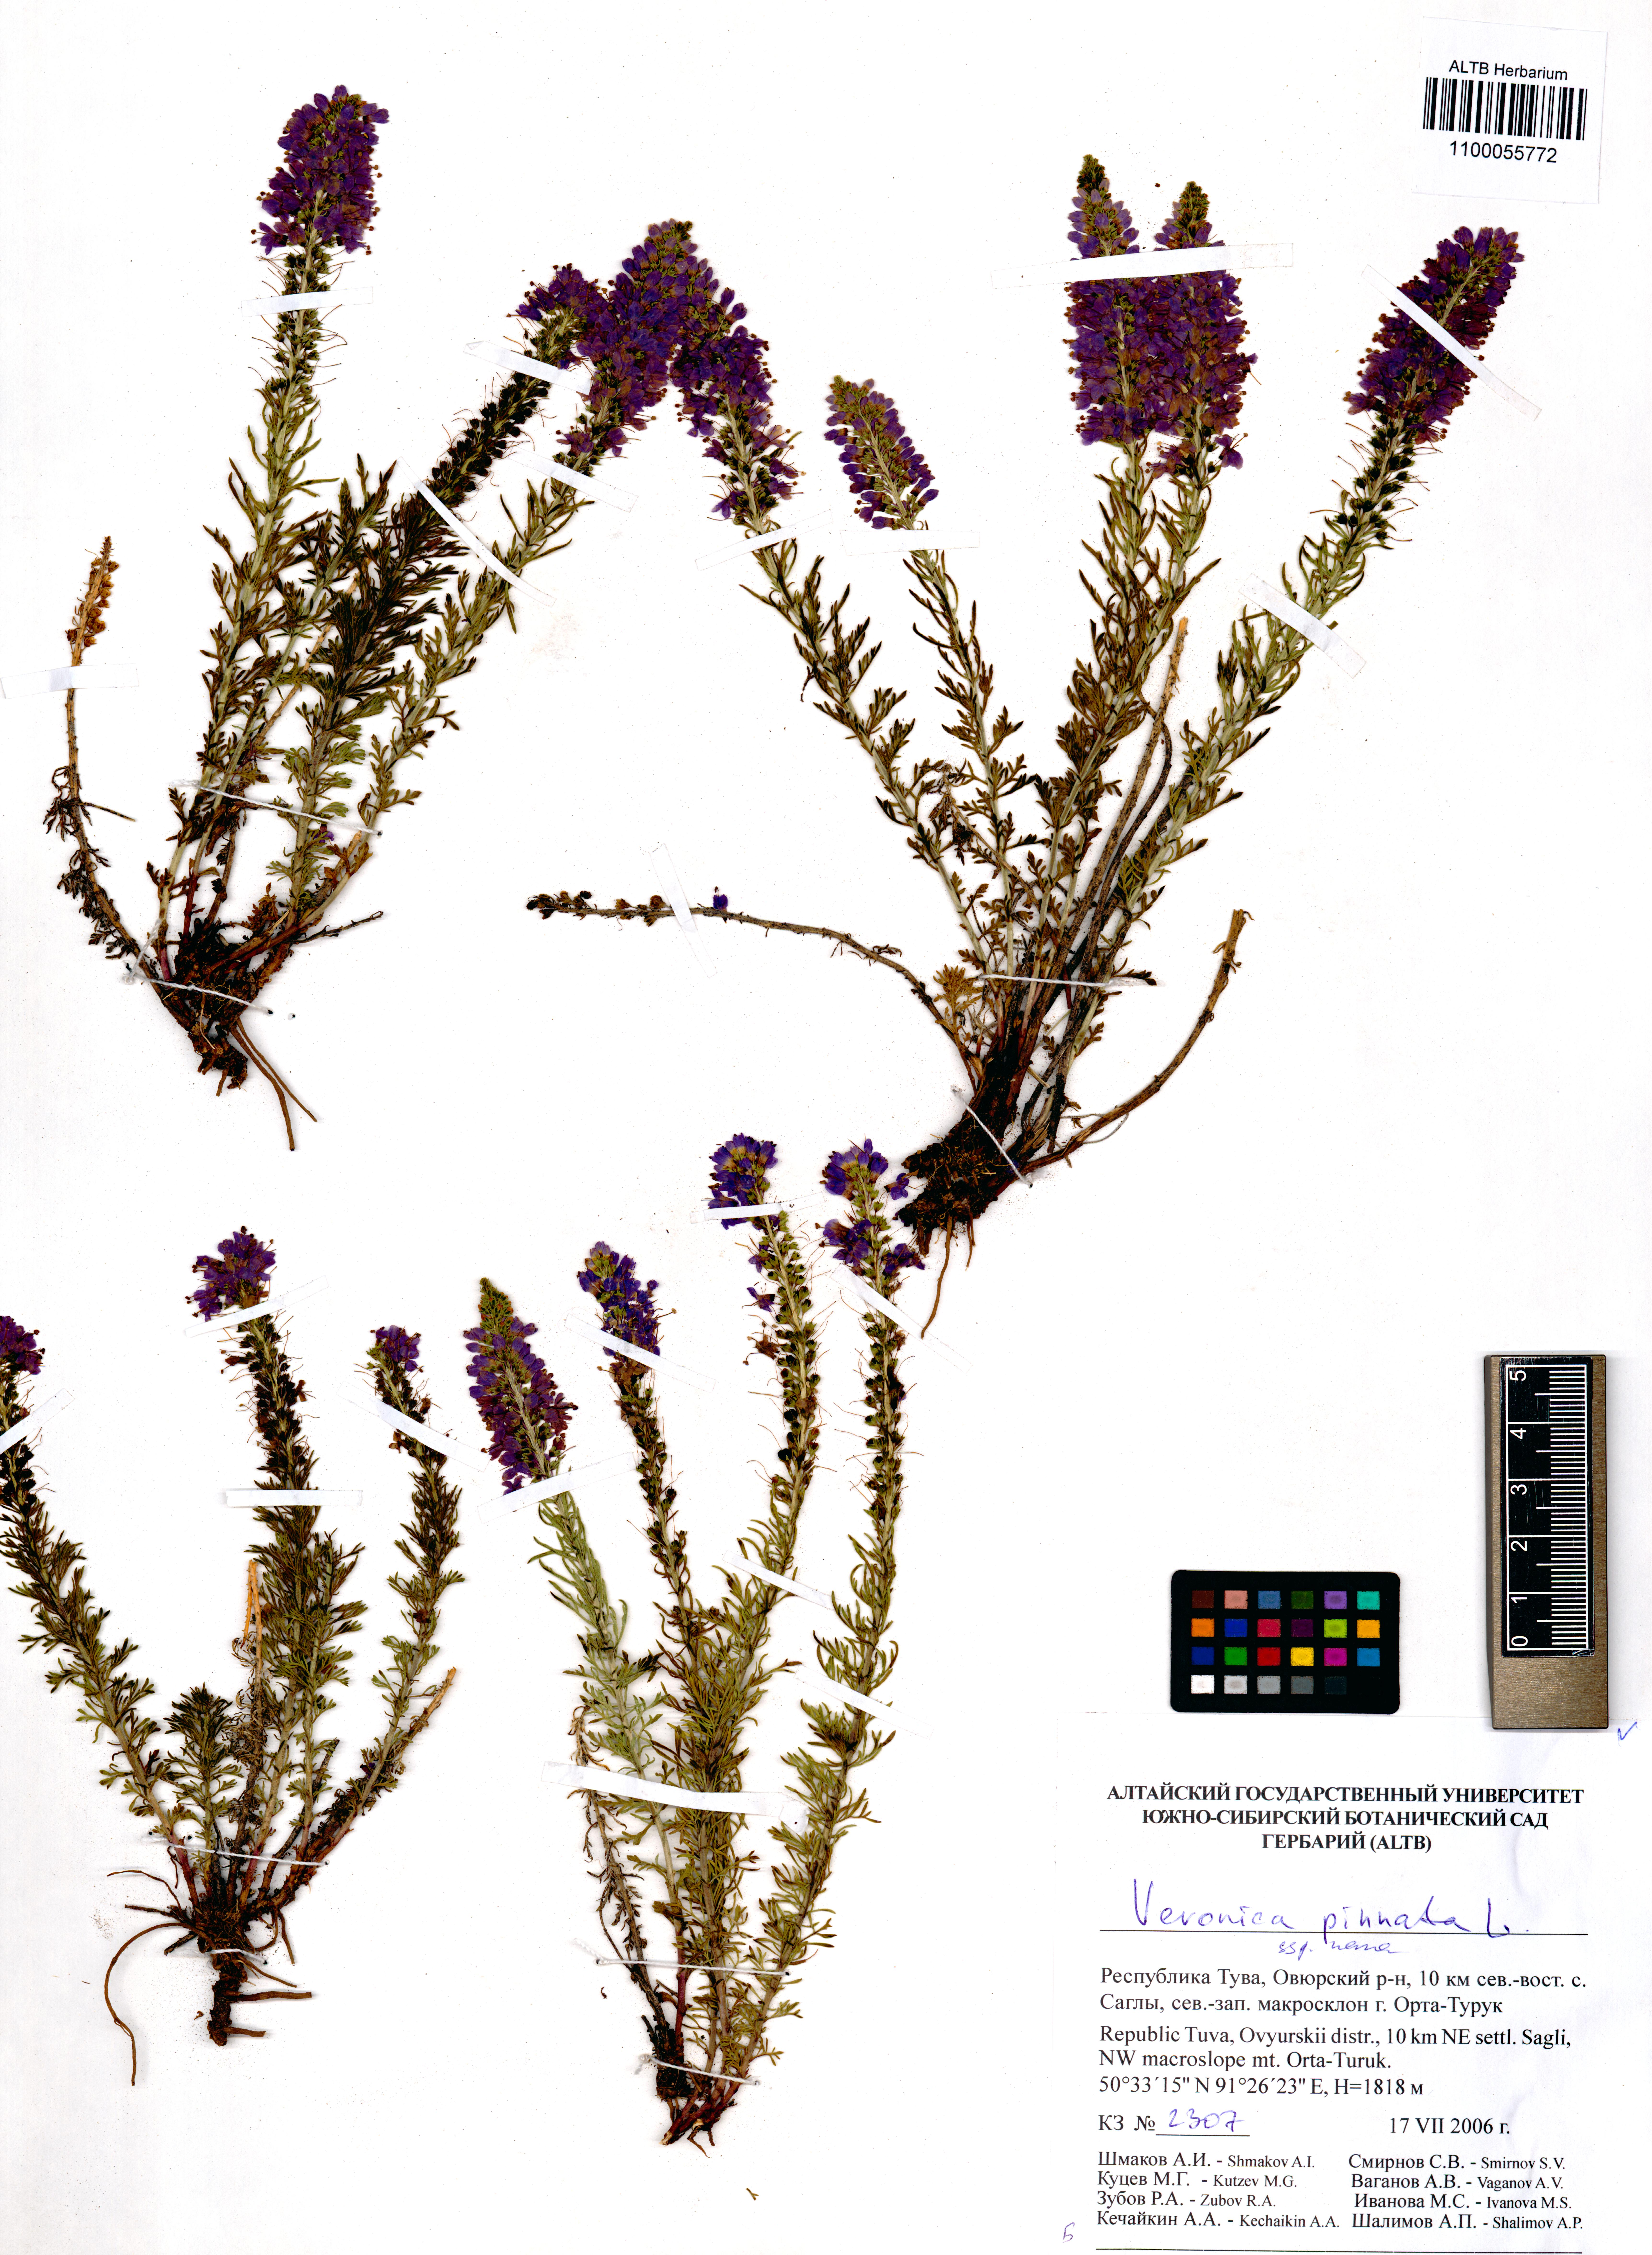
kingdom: Plantae
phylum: Tracheophyta
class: Magnoliopsida
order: Lamiales
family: Plantaginaceae
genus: Veronica
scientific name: Veronica pinnata
